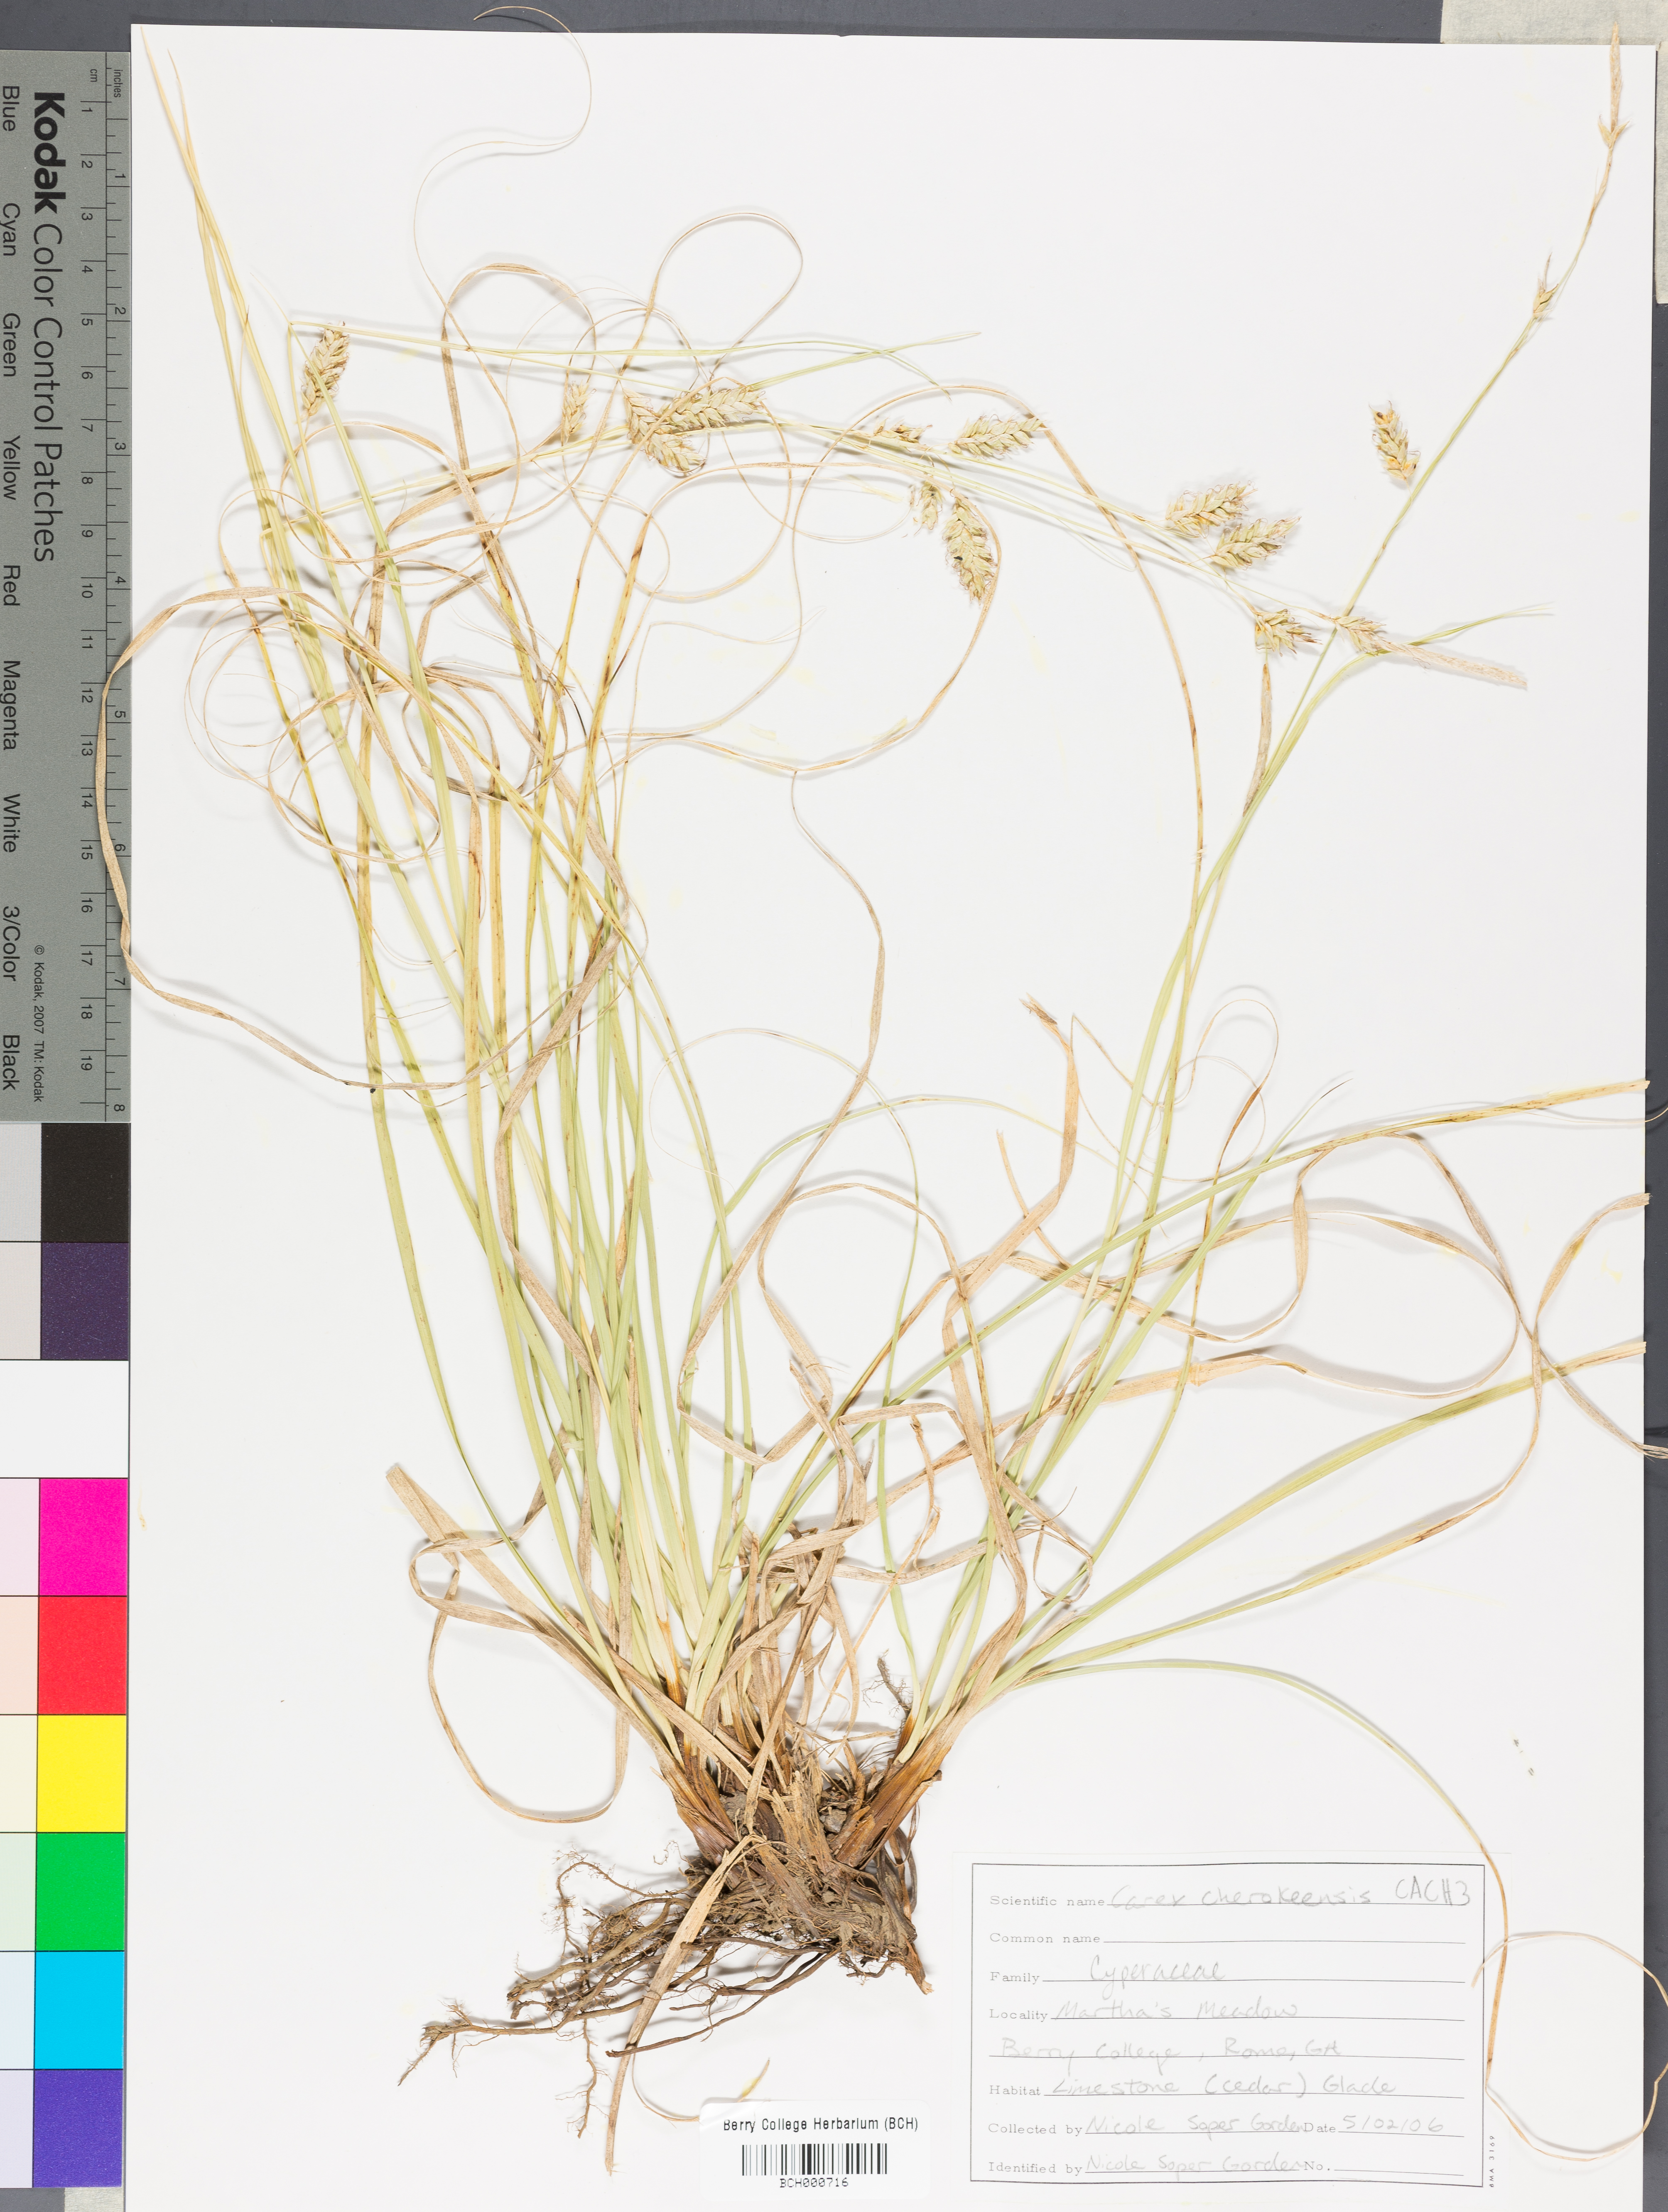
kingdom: Plantae
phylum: Tracheophyta
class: Liliopsida
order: Poales
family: Cyperaceae
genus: Carex
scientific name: Carex cherokeensis
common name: Cherokee sedge
